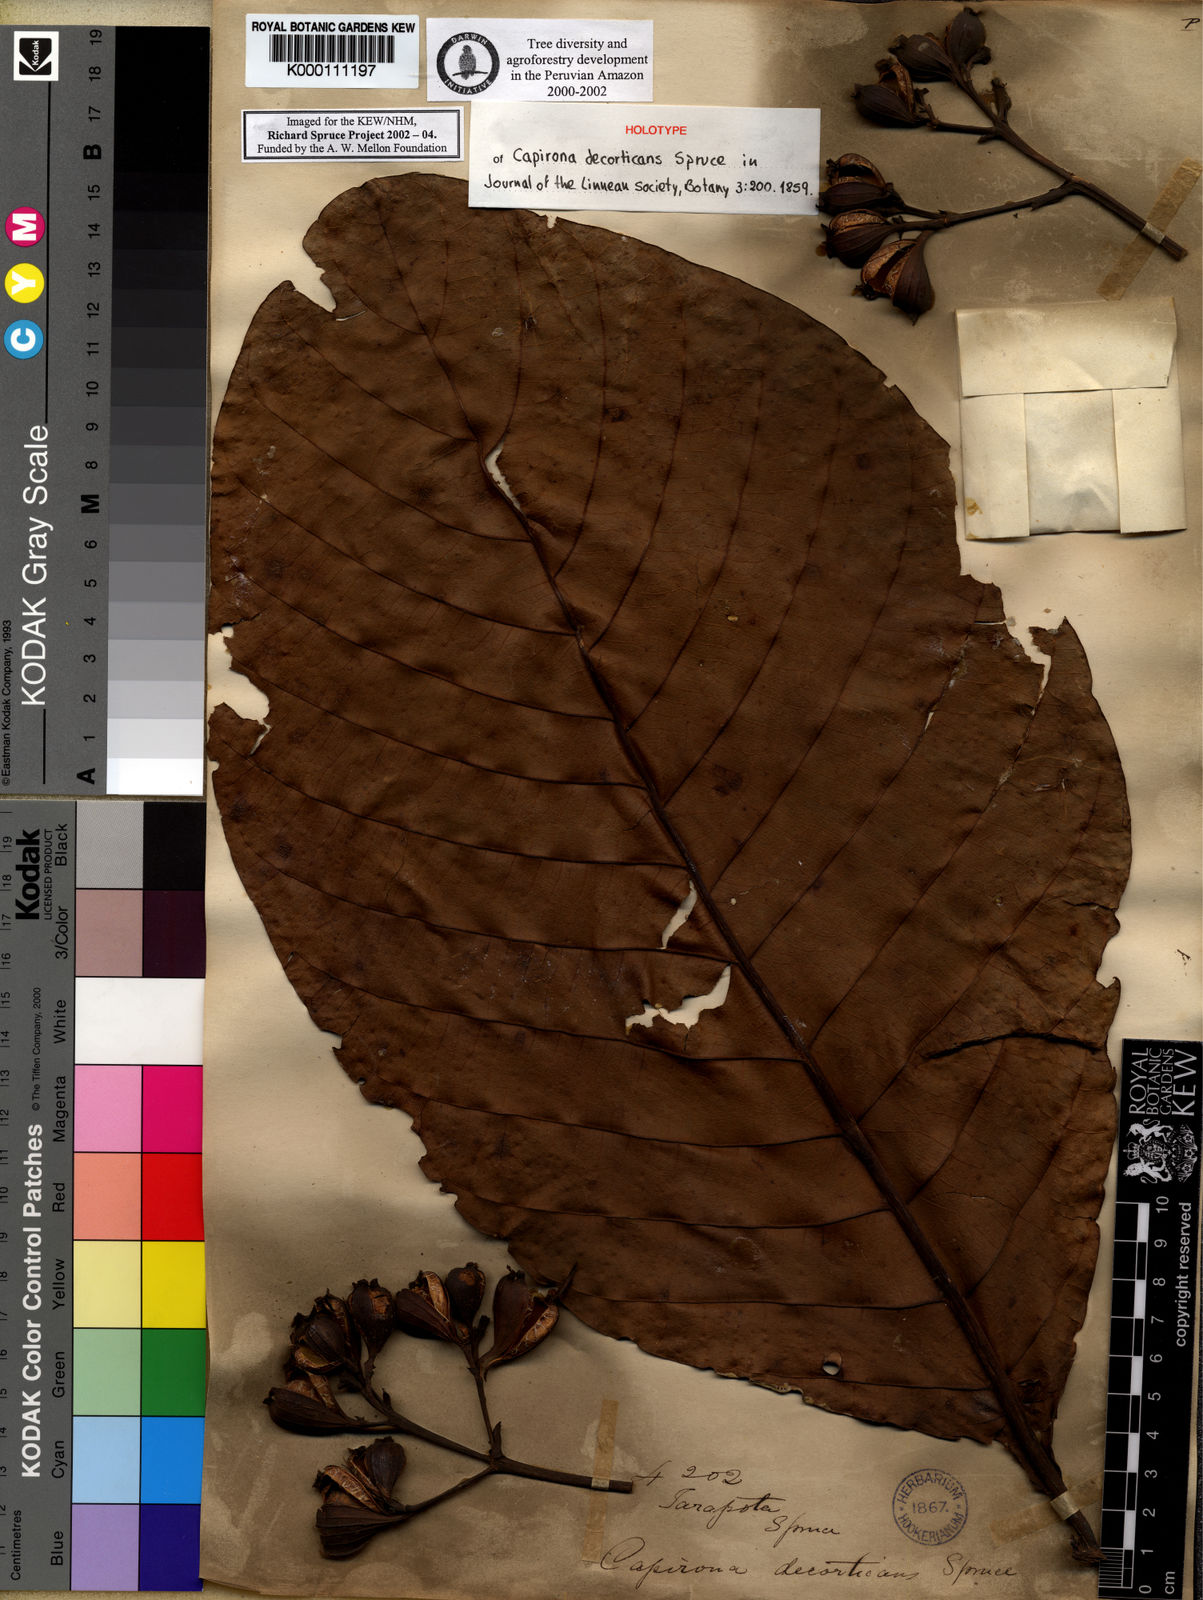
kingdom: Plantae
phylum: Tracheophyta
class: Magnoliopsida
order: Gentianales
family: Rubiaceae
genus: Capirona
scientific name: Capirona macrophylla
